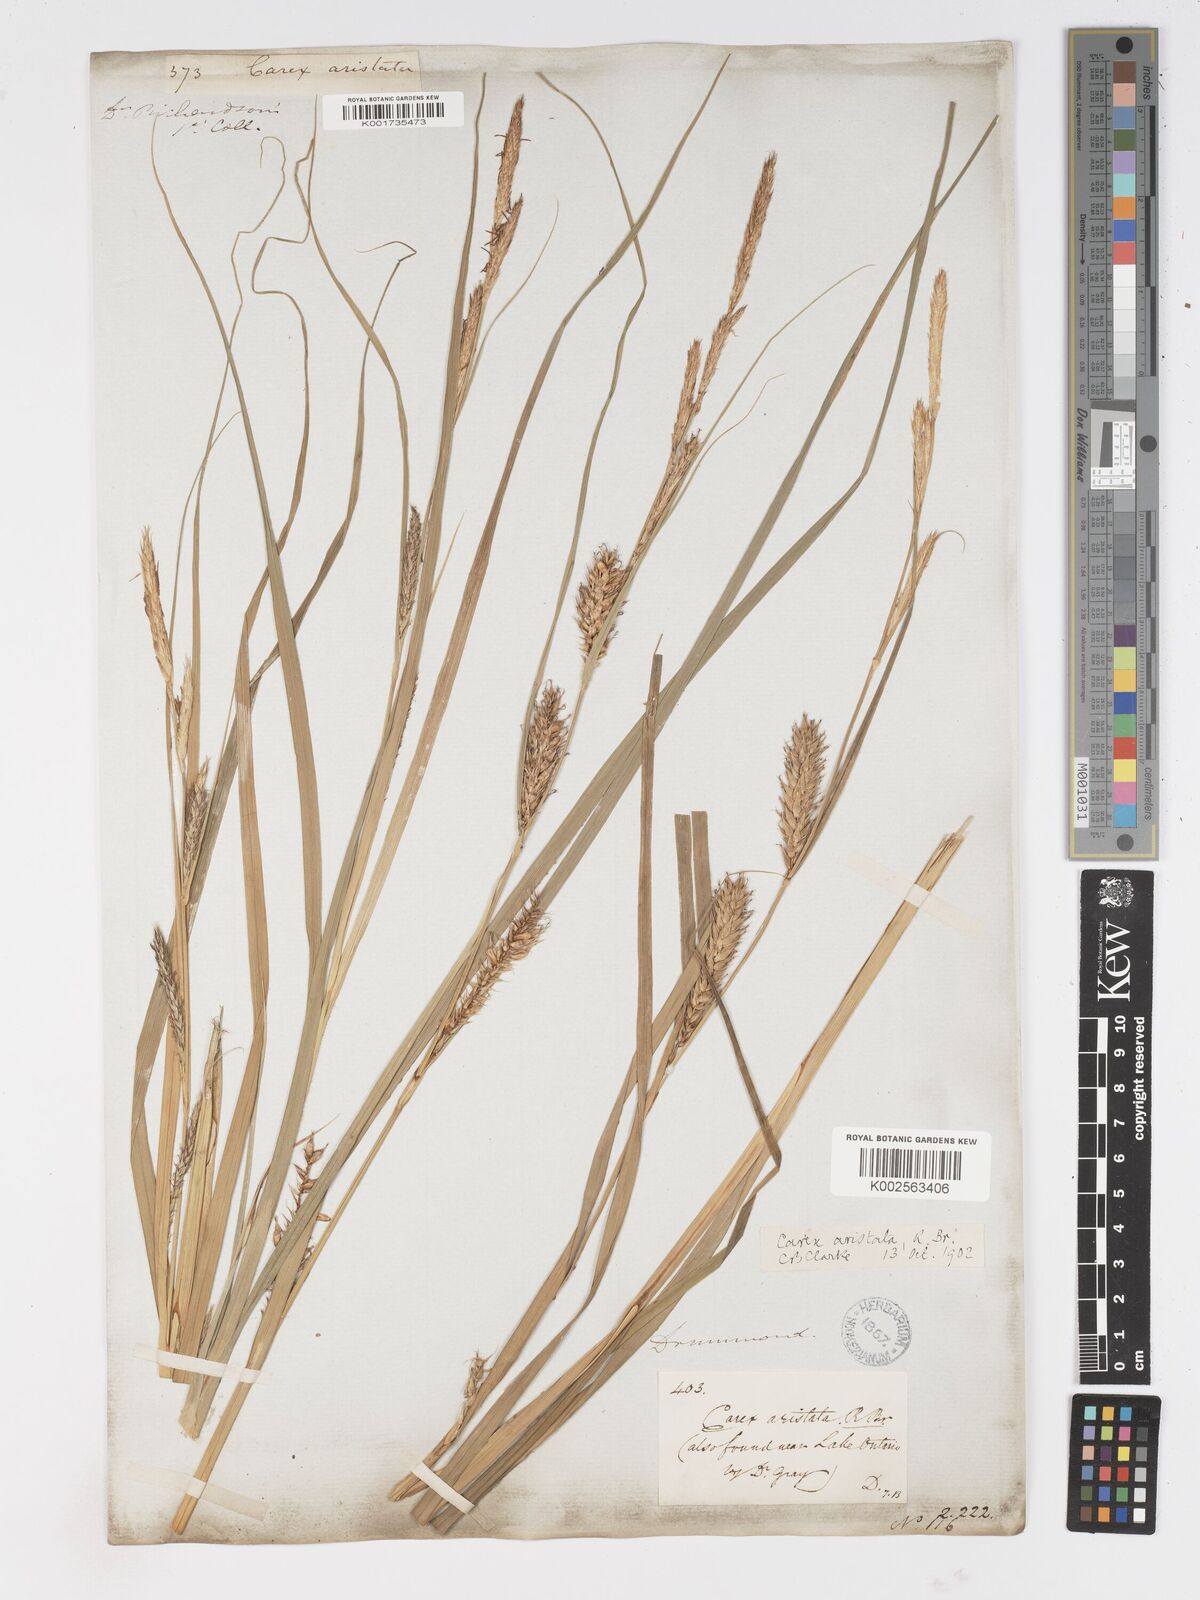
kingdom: Plantae
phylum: Tracheophyta
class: Liliopsida
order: Poales
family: Cyperaceae
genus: Carex
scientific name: Carex atherodes
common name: Wheat sedge
